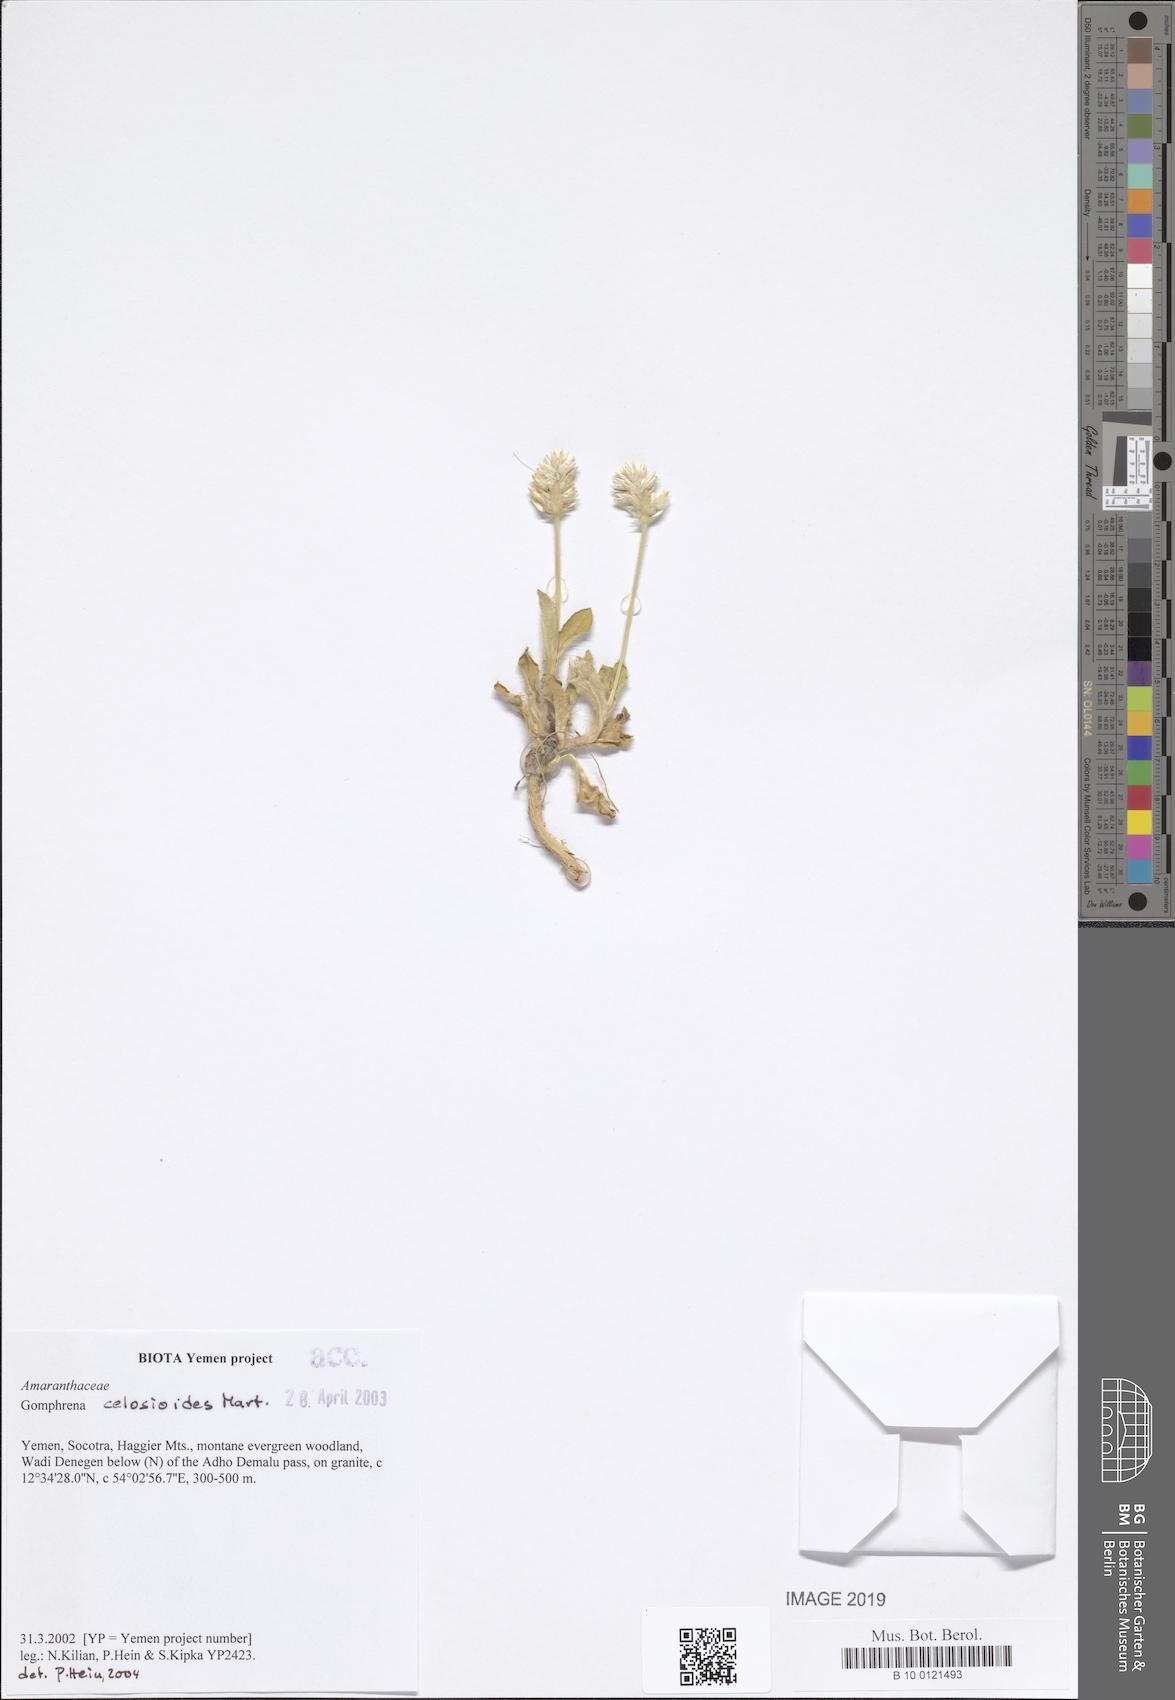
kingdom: Plantae
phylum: Tracheophyta
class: Magnoliopsida
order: Caryophyllales
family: Amaranthaceae
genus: Gomphrena
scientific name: Gomphrena celosioides
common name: Gomphrena-weed
